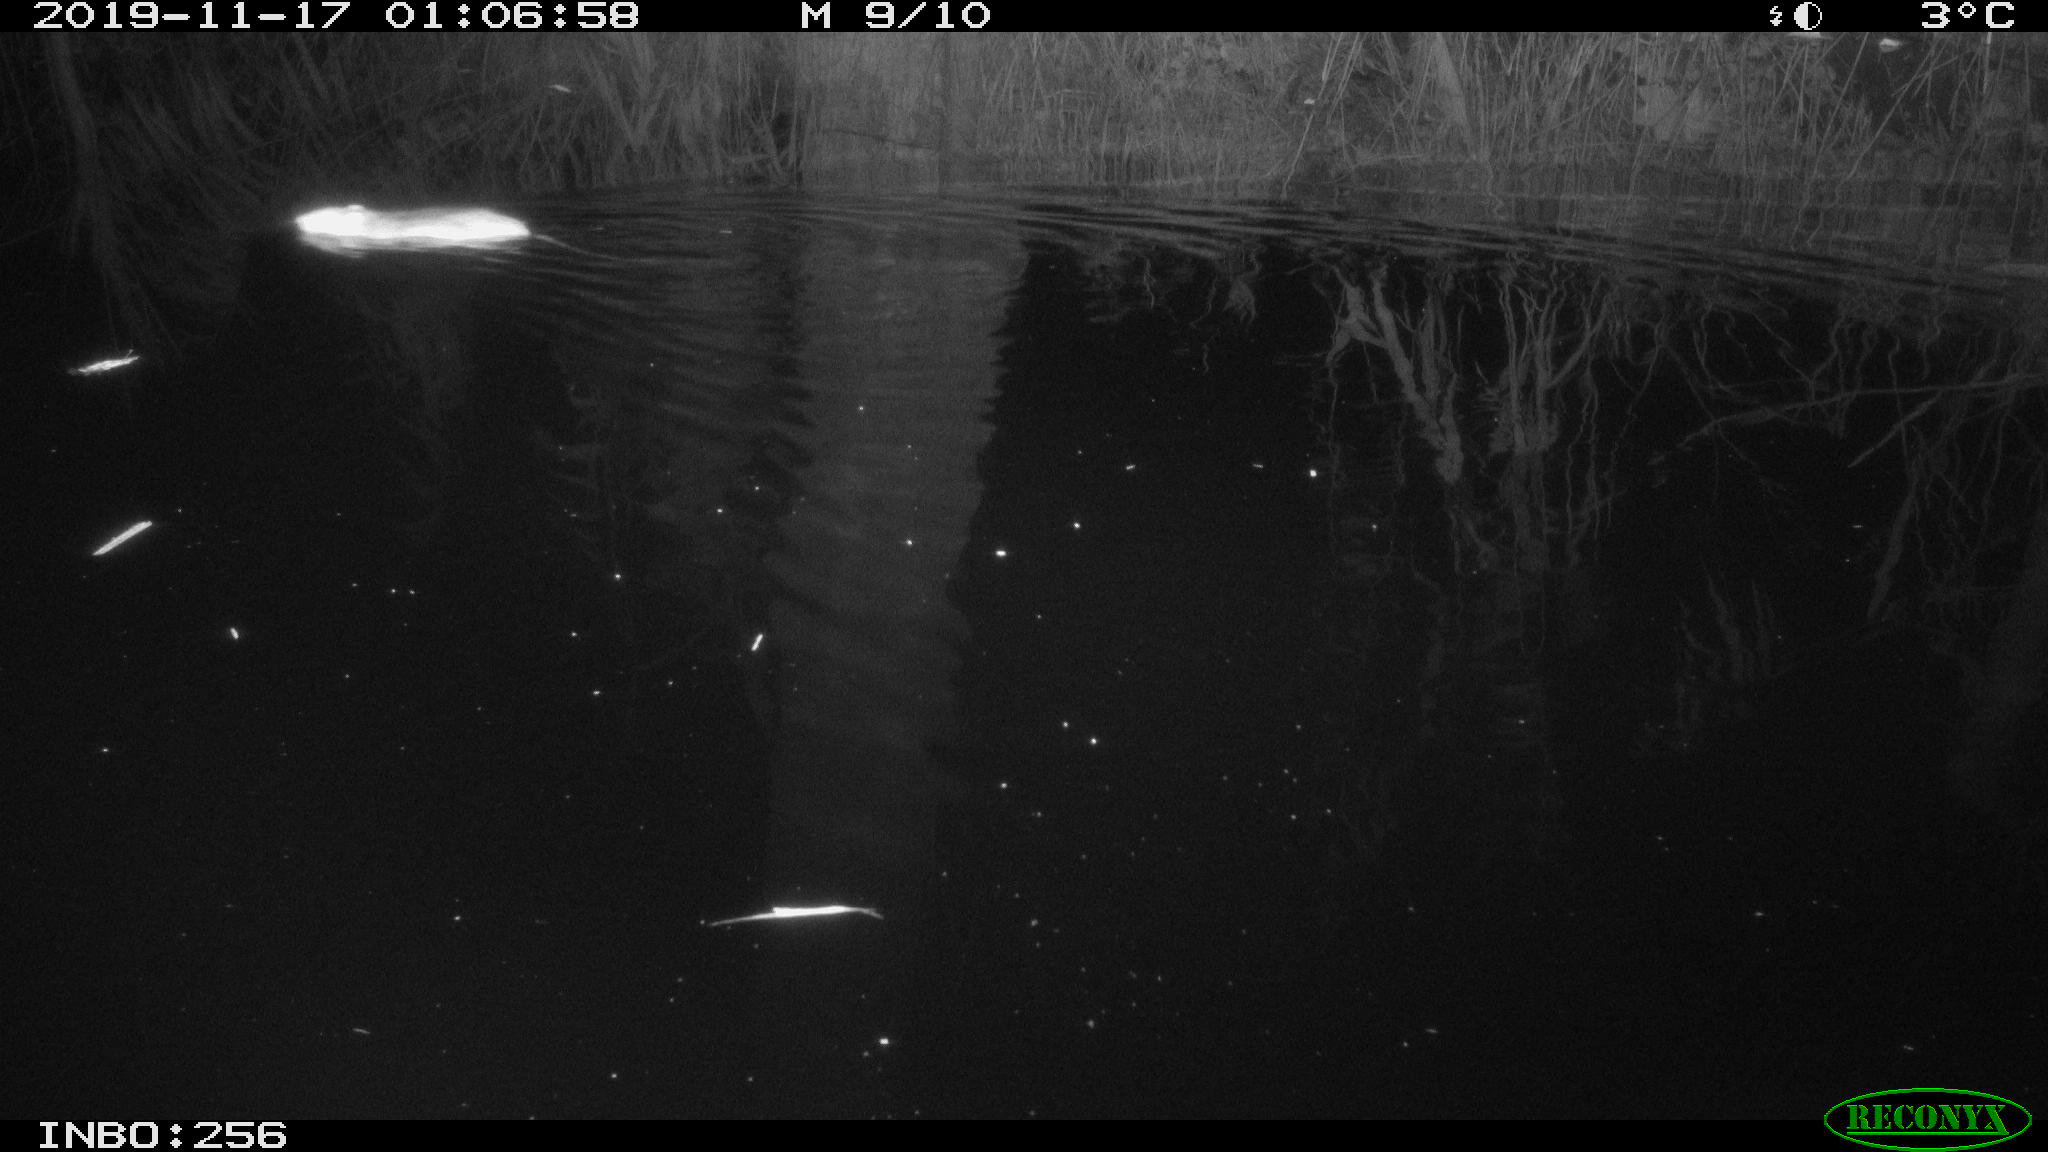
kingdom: Animalia
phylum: Chordata
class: Mammalia
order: Rodentia
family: Muridae
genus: Rattus
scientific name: Rattus norvegicus
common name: Brown rat
